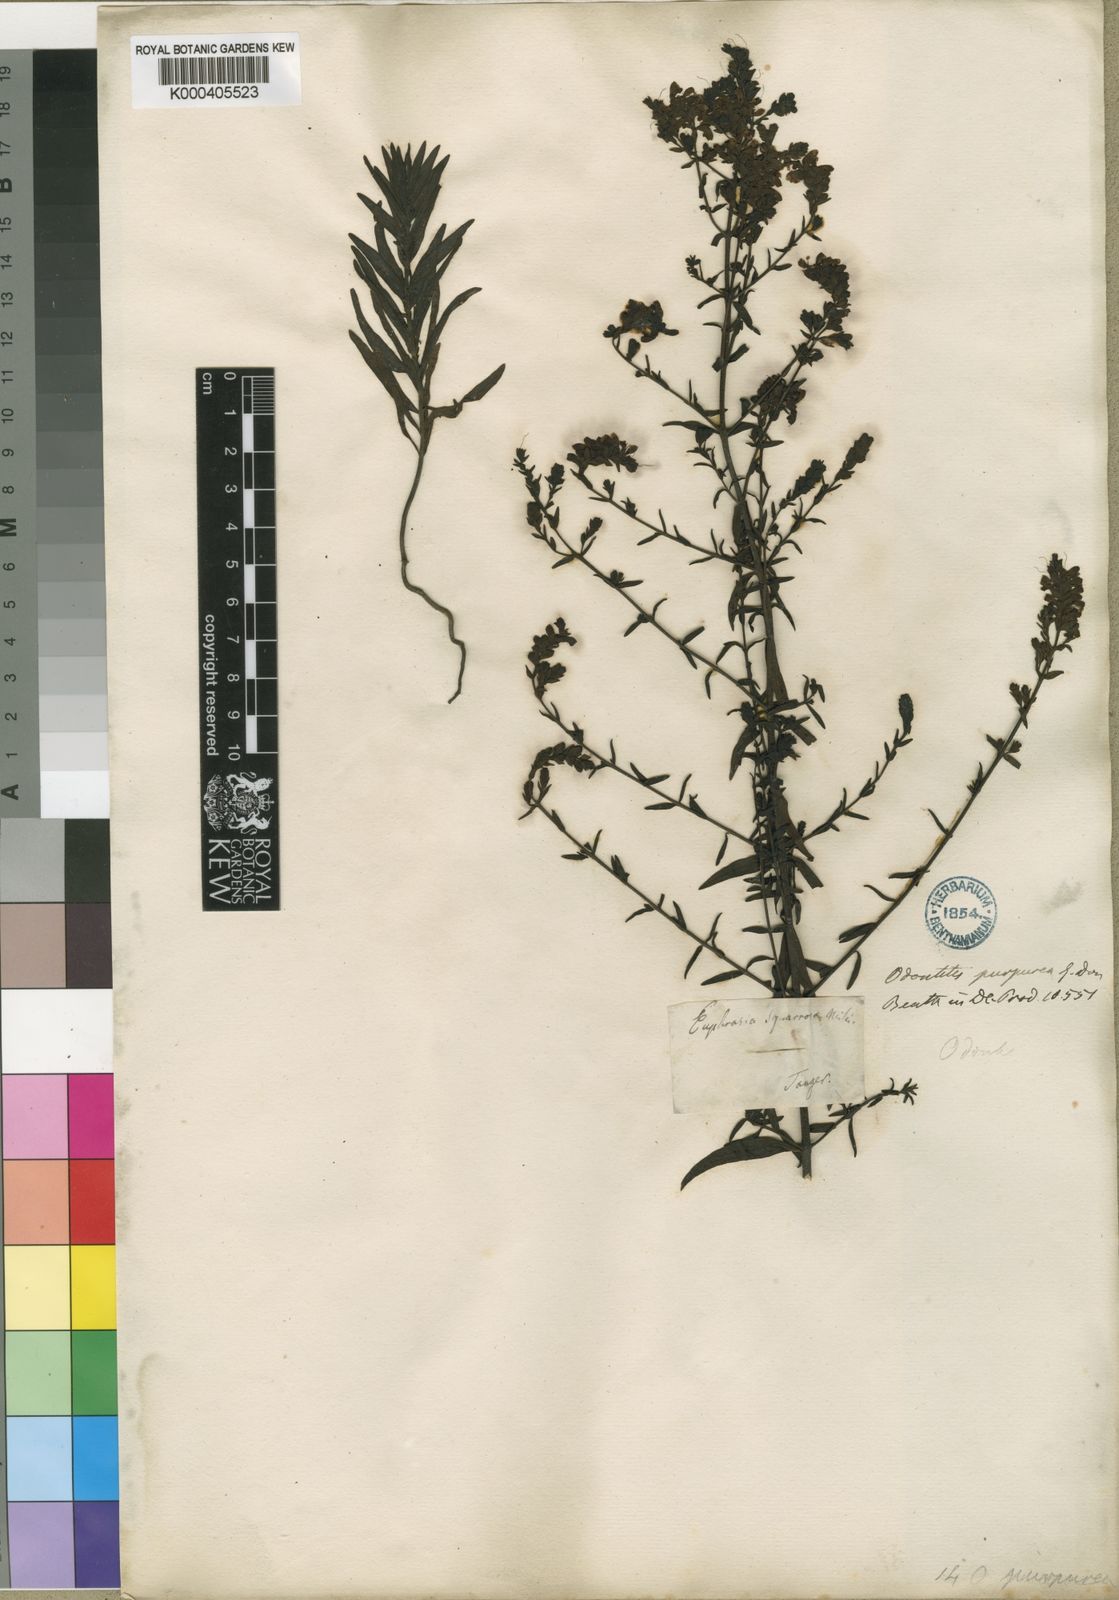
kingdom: Plantae
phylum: Tracheophyta
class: Magnoliopsida
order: Lamiales
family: Orobanchaceae
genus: Odontites
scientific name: Odontites purpureus
